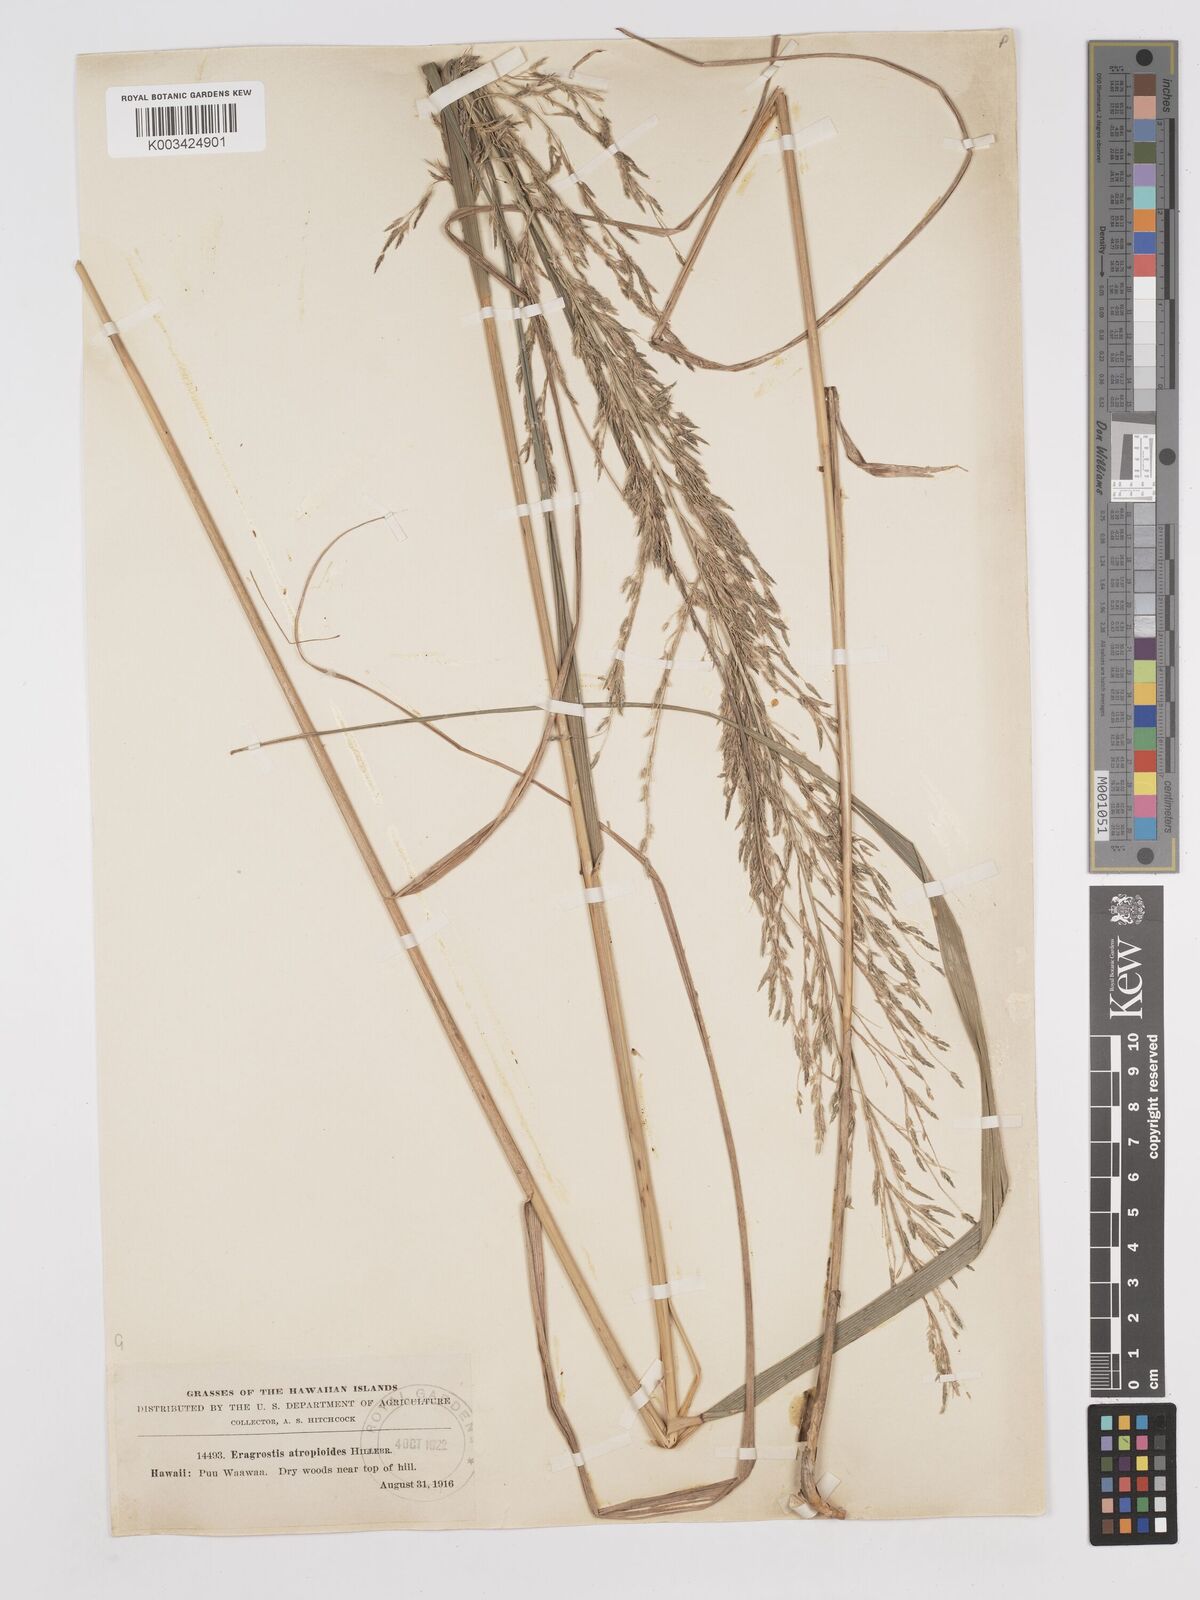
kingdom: Plantae
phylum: Tracheophyta
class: Liliopsida
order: Poales
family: Poaceae
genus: Eragrostis
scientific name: Eragrostis atropioides
